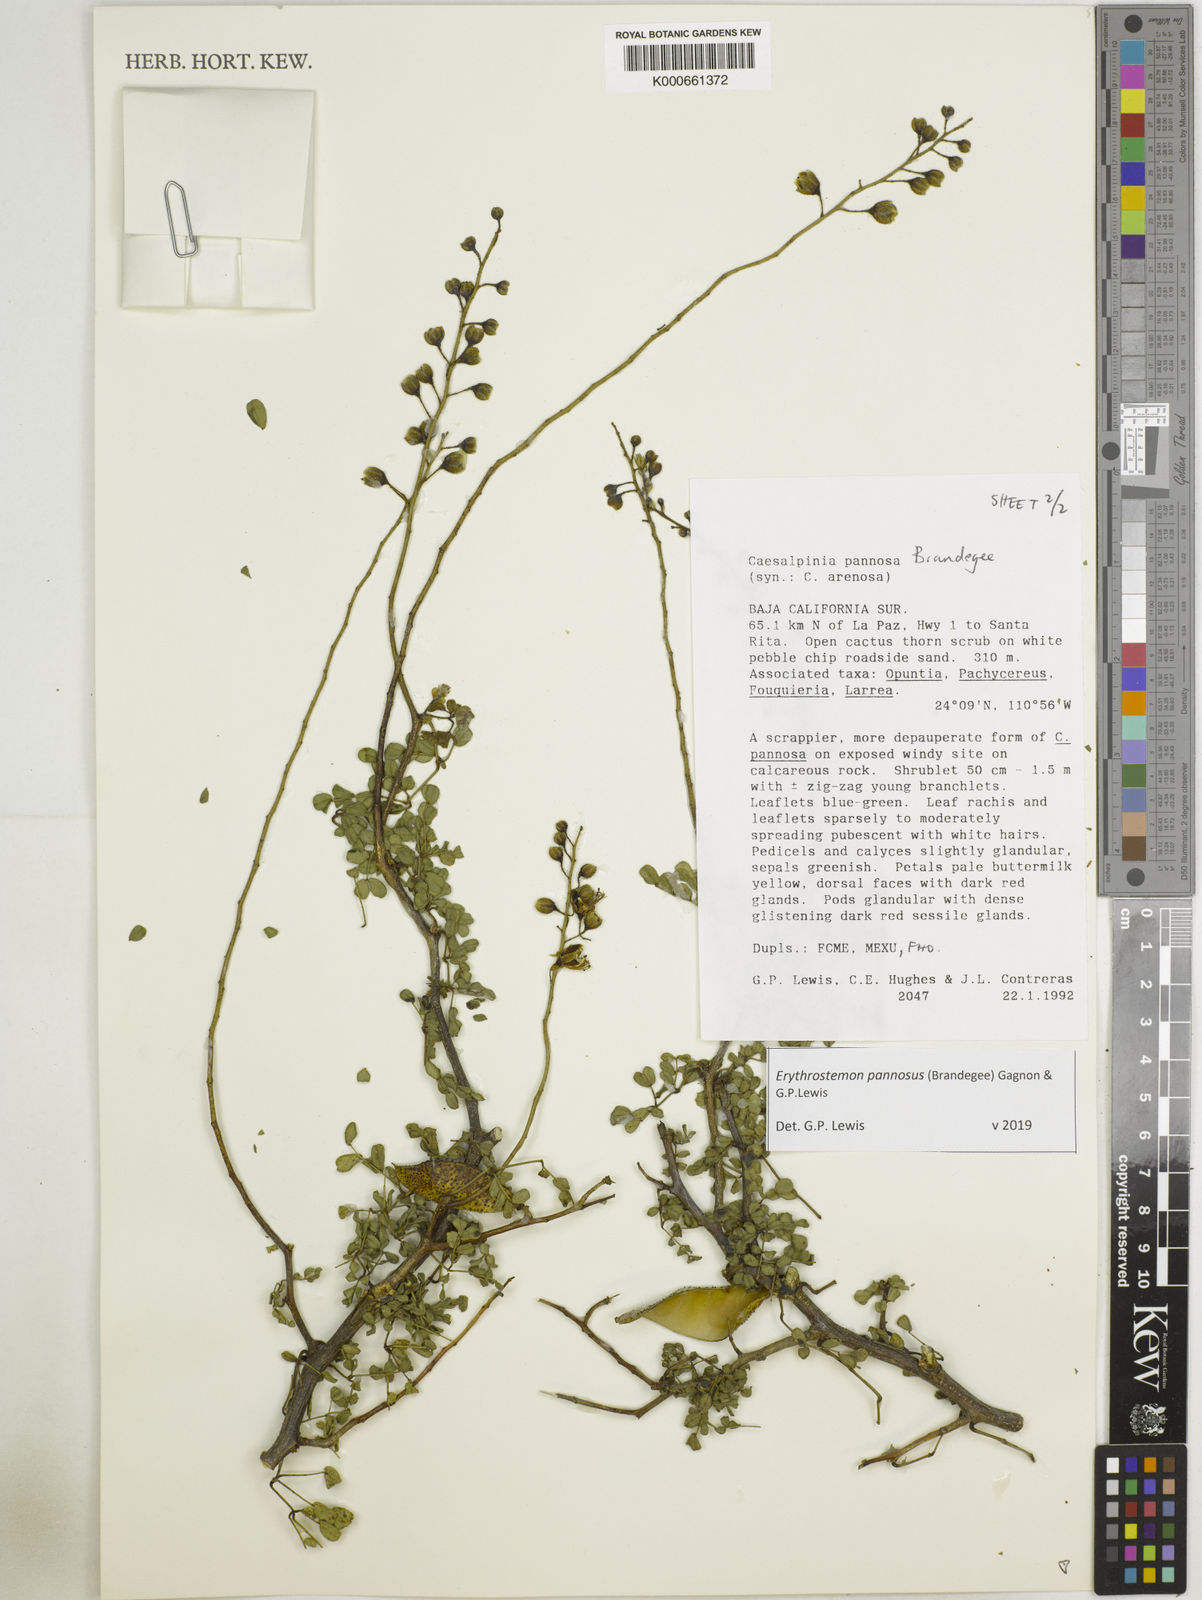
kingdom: Plantae
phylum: Tracheophyta
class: Magnoliopsida
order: Fabales
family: Fabaceae
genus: Erythrostemon
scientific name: Erythrostemon pannosus
